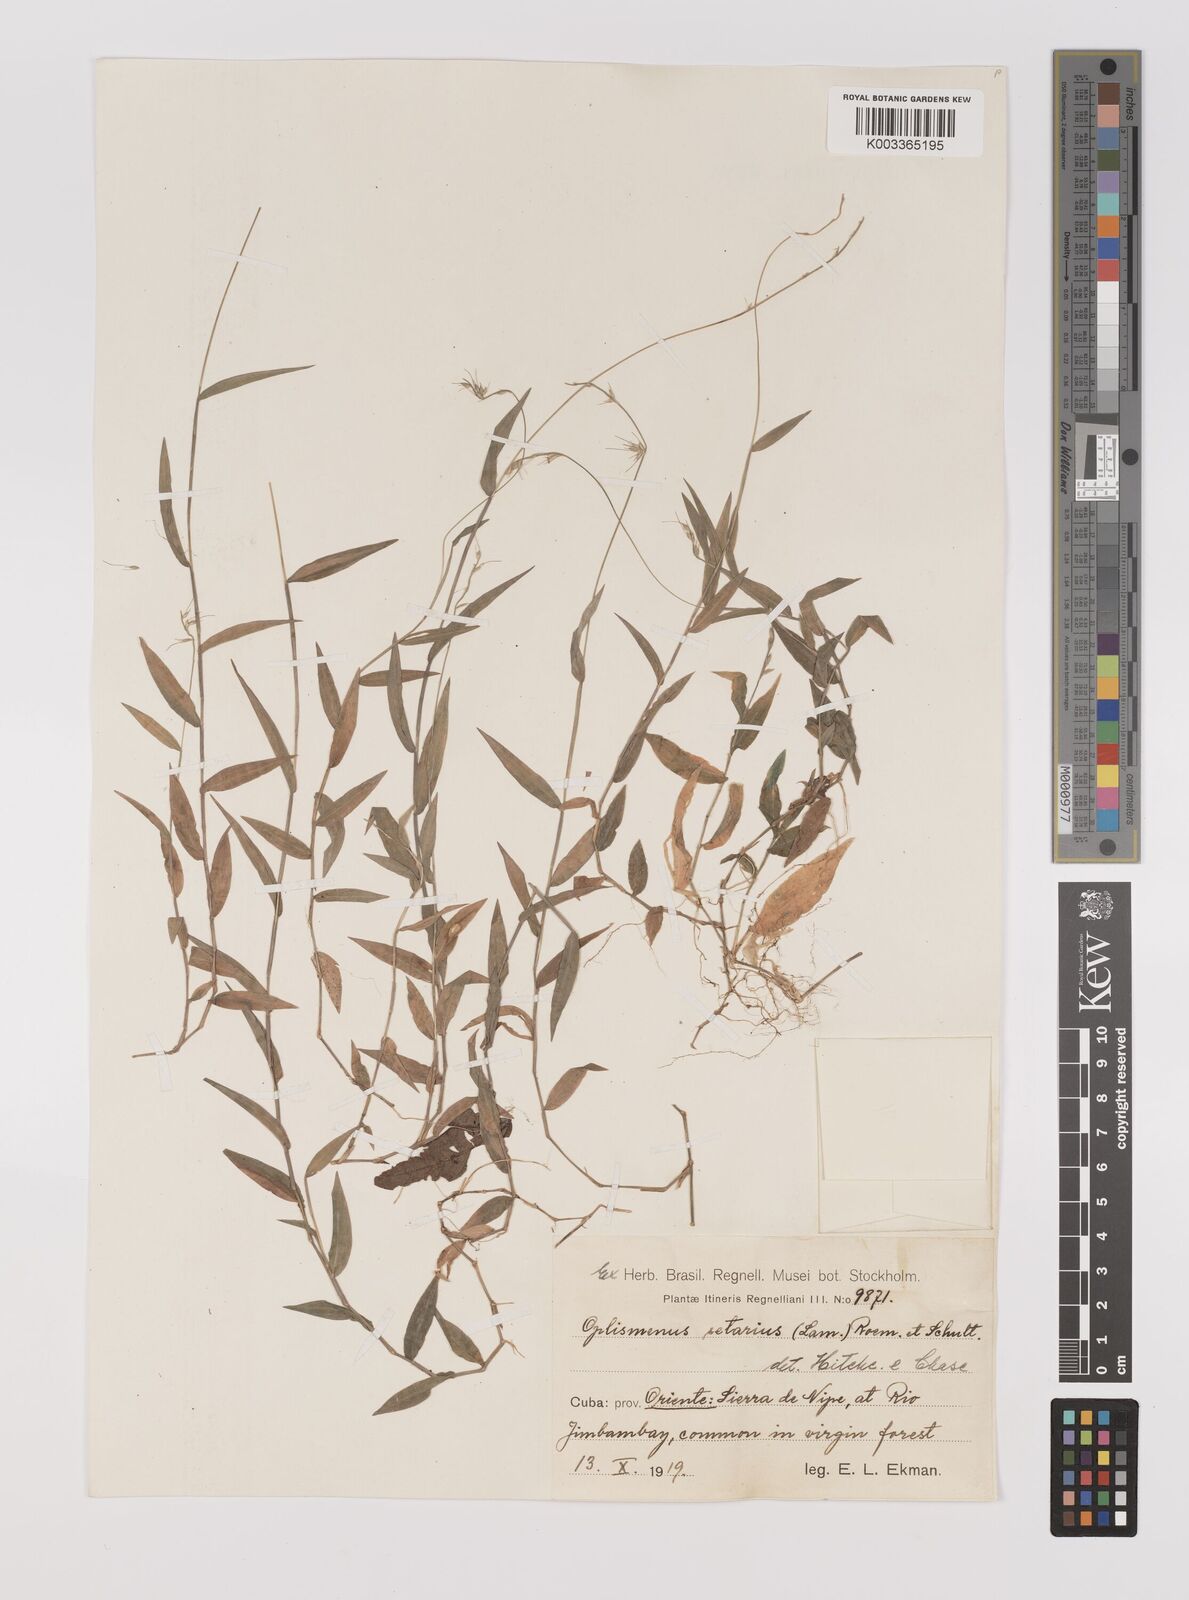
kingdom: Plantae
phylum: Tracheophyta
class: Liliopsida
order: Poales
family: Poaceae
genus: Oplismenus
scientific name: Oplismenus hirtellus
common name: Basketgrass
